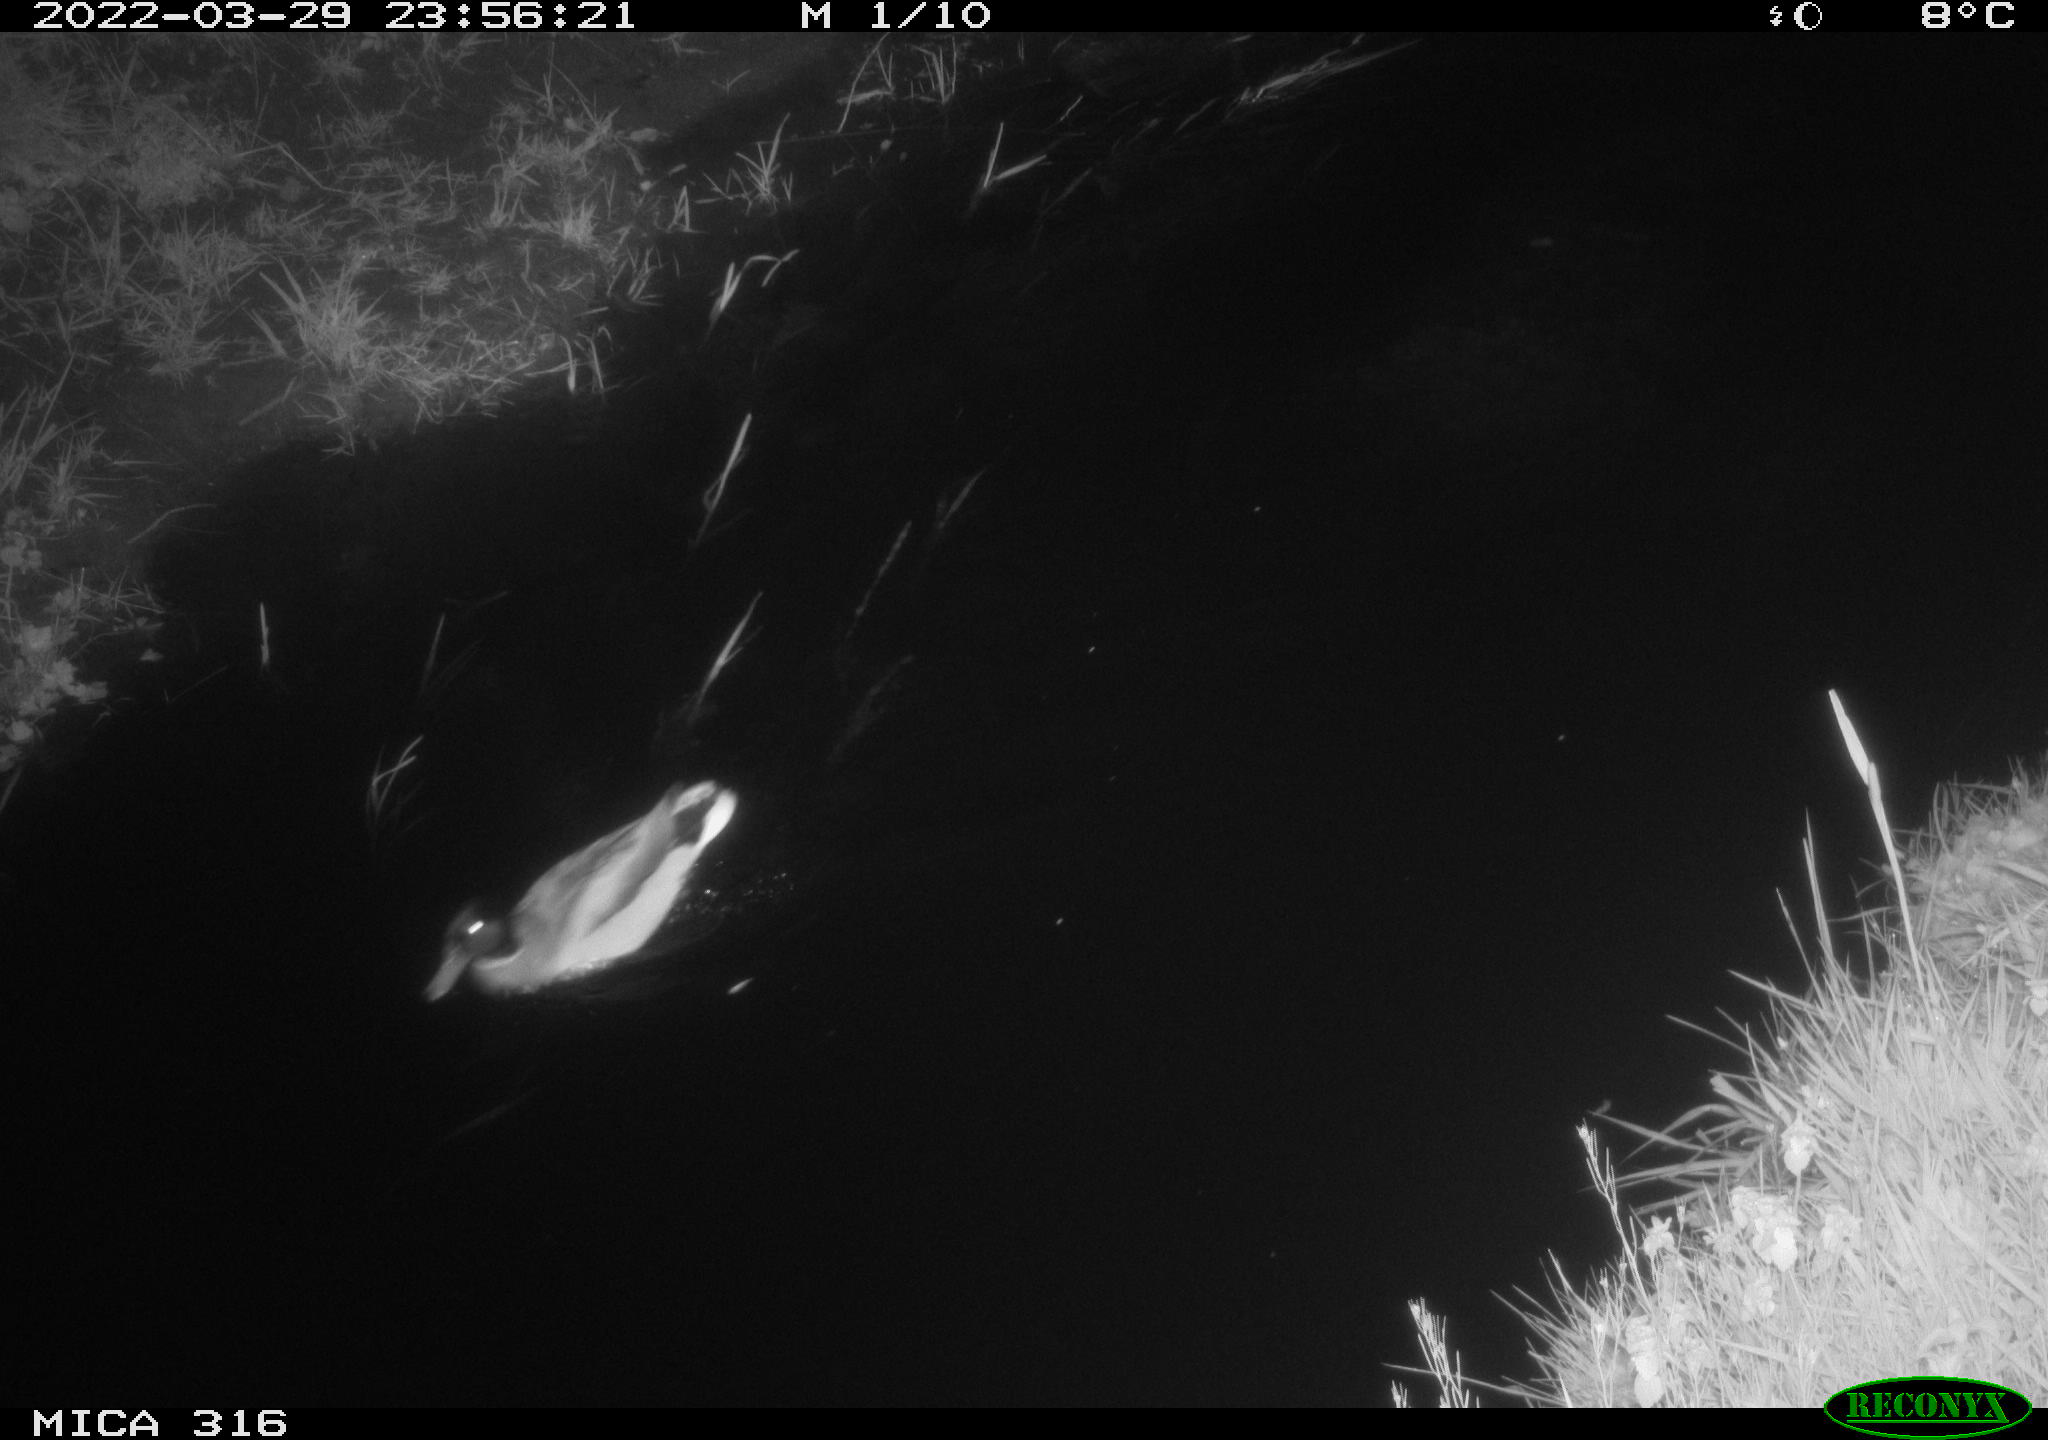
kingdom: Animalia
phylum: Chordata
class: Aves
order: Anseriformes
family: Anatidae
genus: Anas
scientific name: Anas platyrhynchos
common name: Mallard
